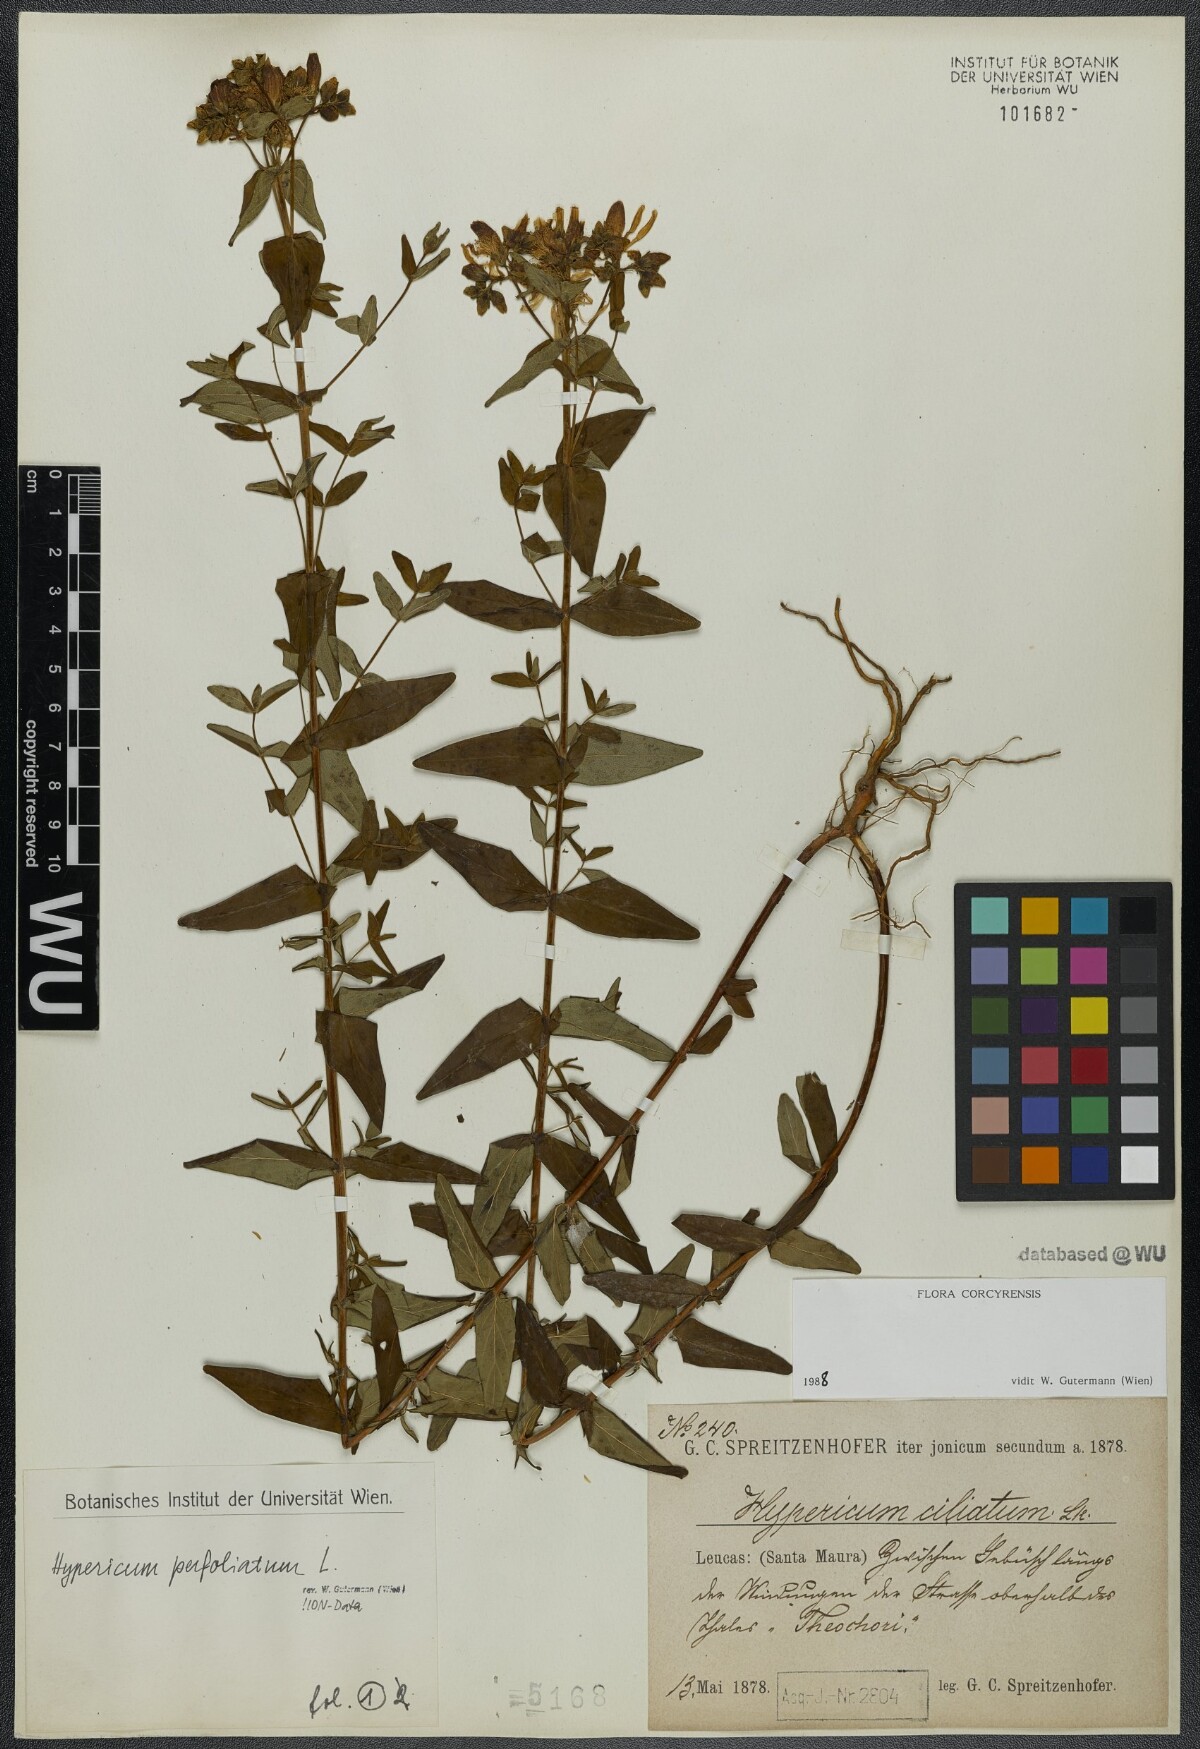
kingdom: Plantae
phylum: Tracheophyta
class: Magnoliopsida
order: Malpighiales
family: Hypericaceae
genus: Hypericum
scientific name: Hypericum perfoliatum
